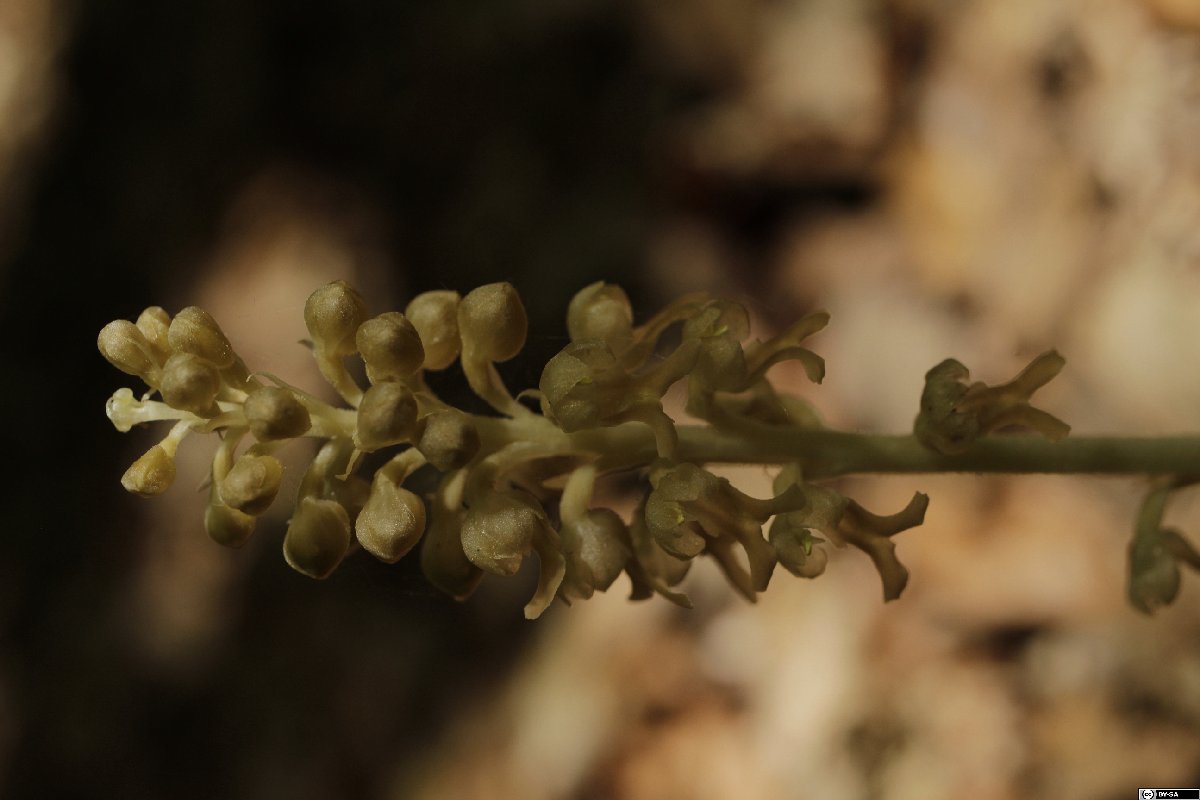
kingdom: Plantae
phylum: Tracheophyta
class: Magnoliopsida
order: Malpighiales
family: Salicaceae
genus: Salix
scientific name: Salix babylonica
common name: Weeping willow
